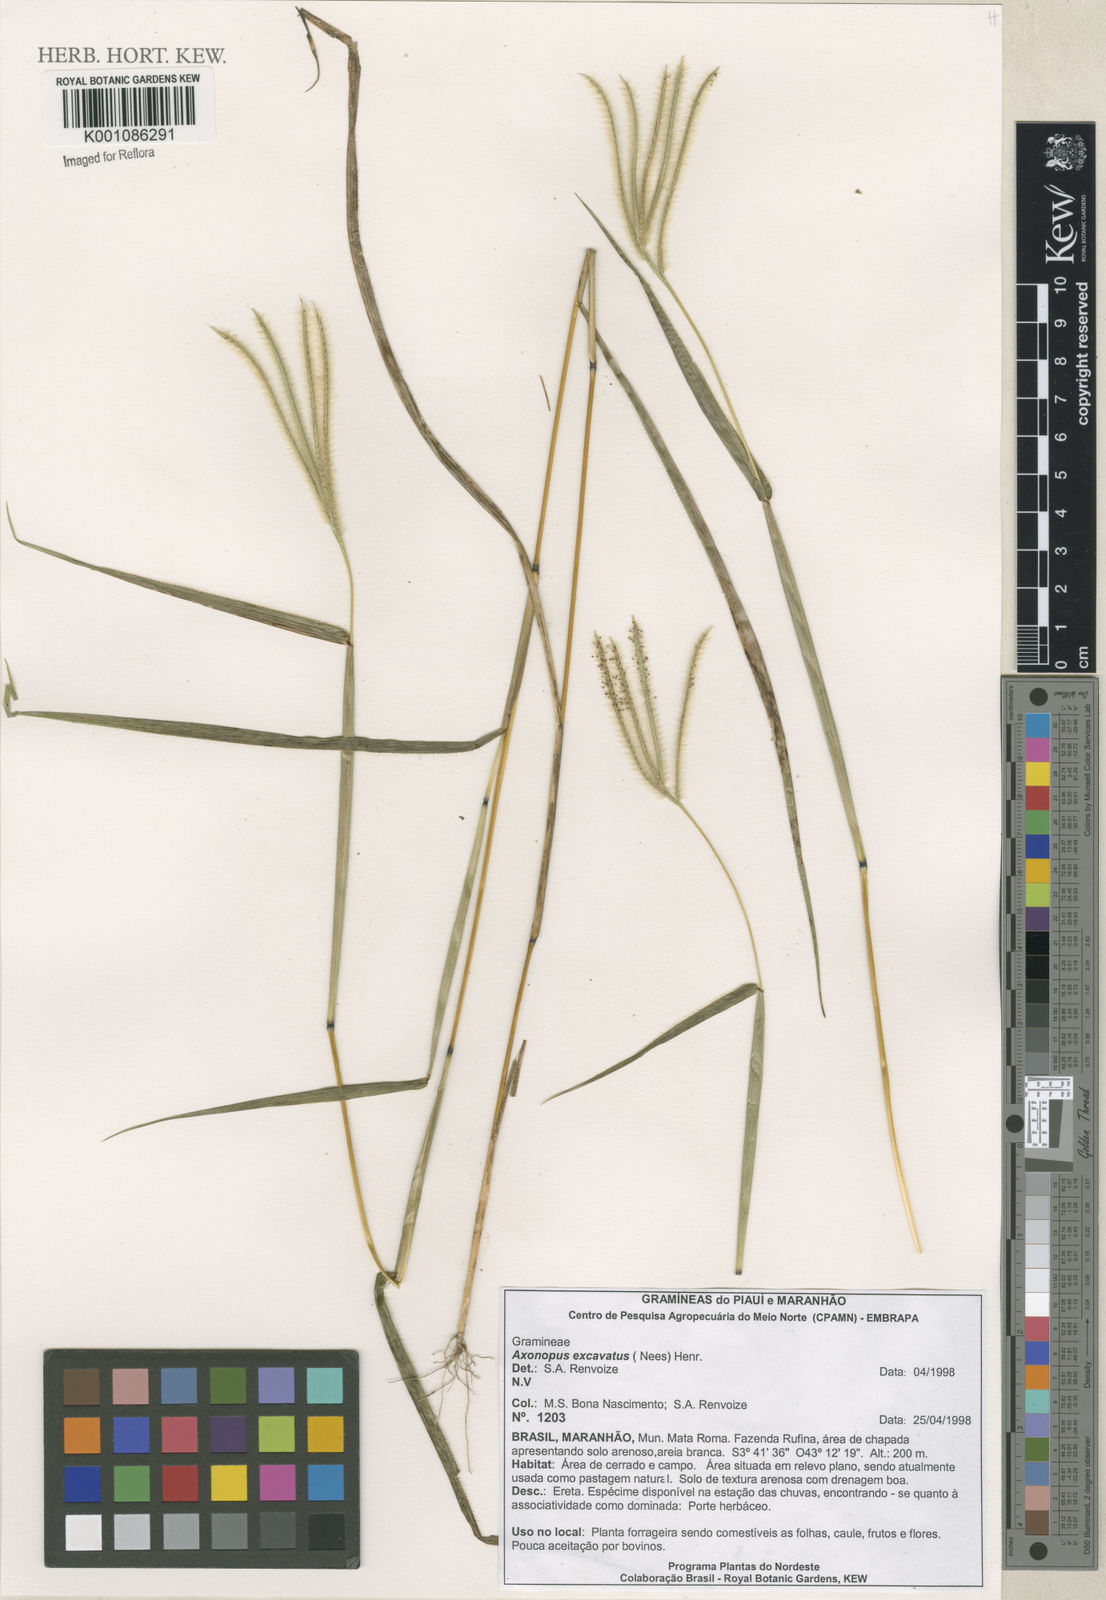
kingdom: Plantae
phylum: Tracheophyta
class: Liliopsida
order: Poales
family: Poaceae
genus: Axonopus
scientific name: Axonopus chrysoblepharis
